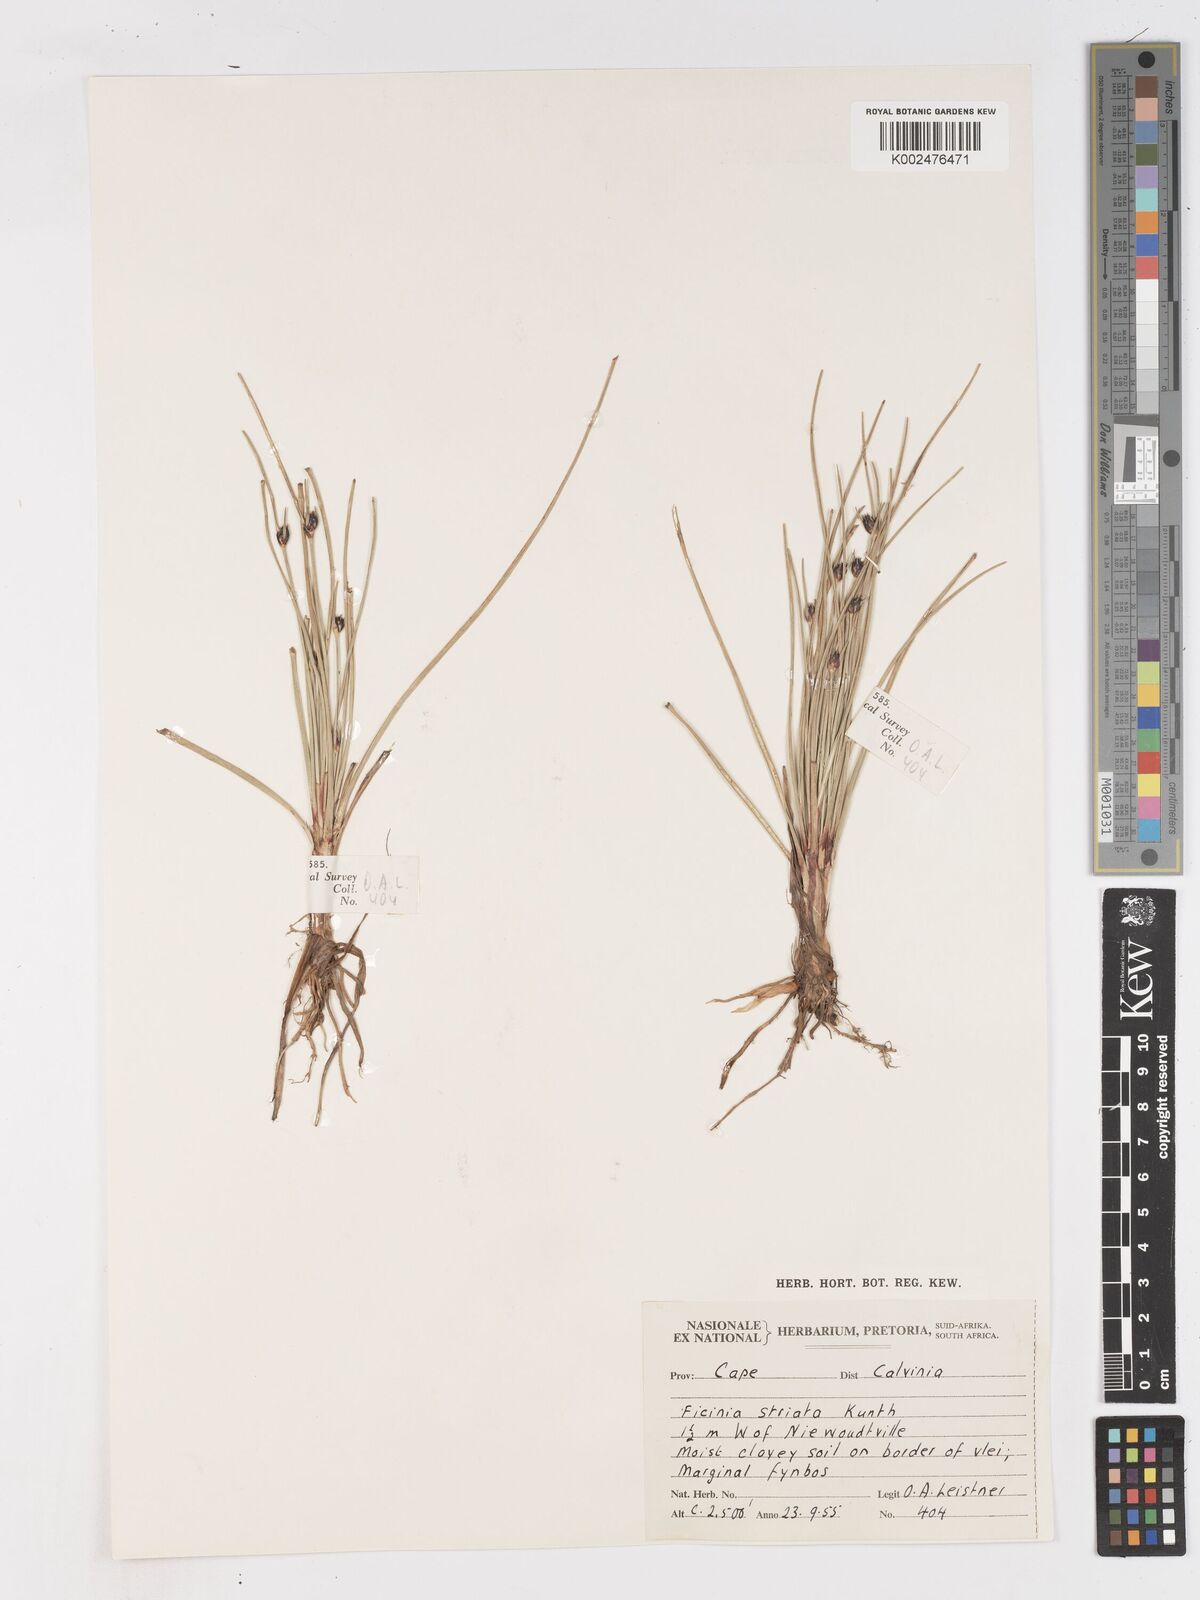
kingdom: Plantae
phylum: Tracheophyta
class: Liliopsida
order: Poales
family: Cyperaceae
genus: Ficinia
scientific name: Ficinia indica
